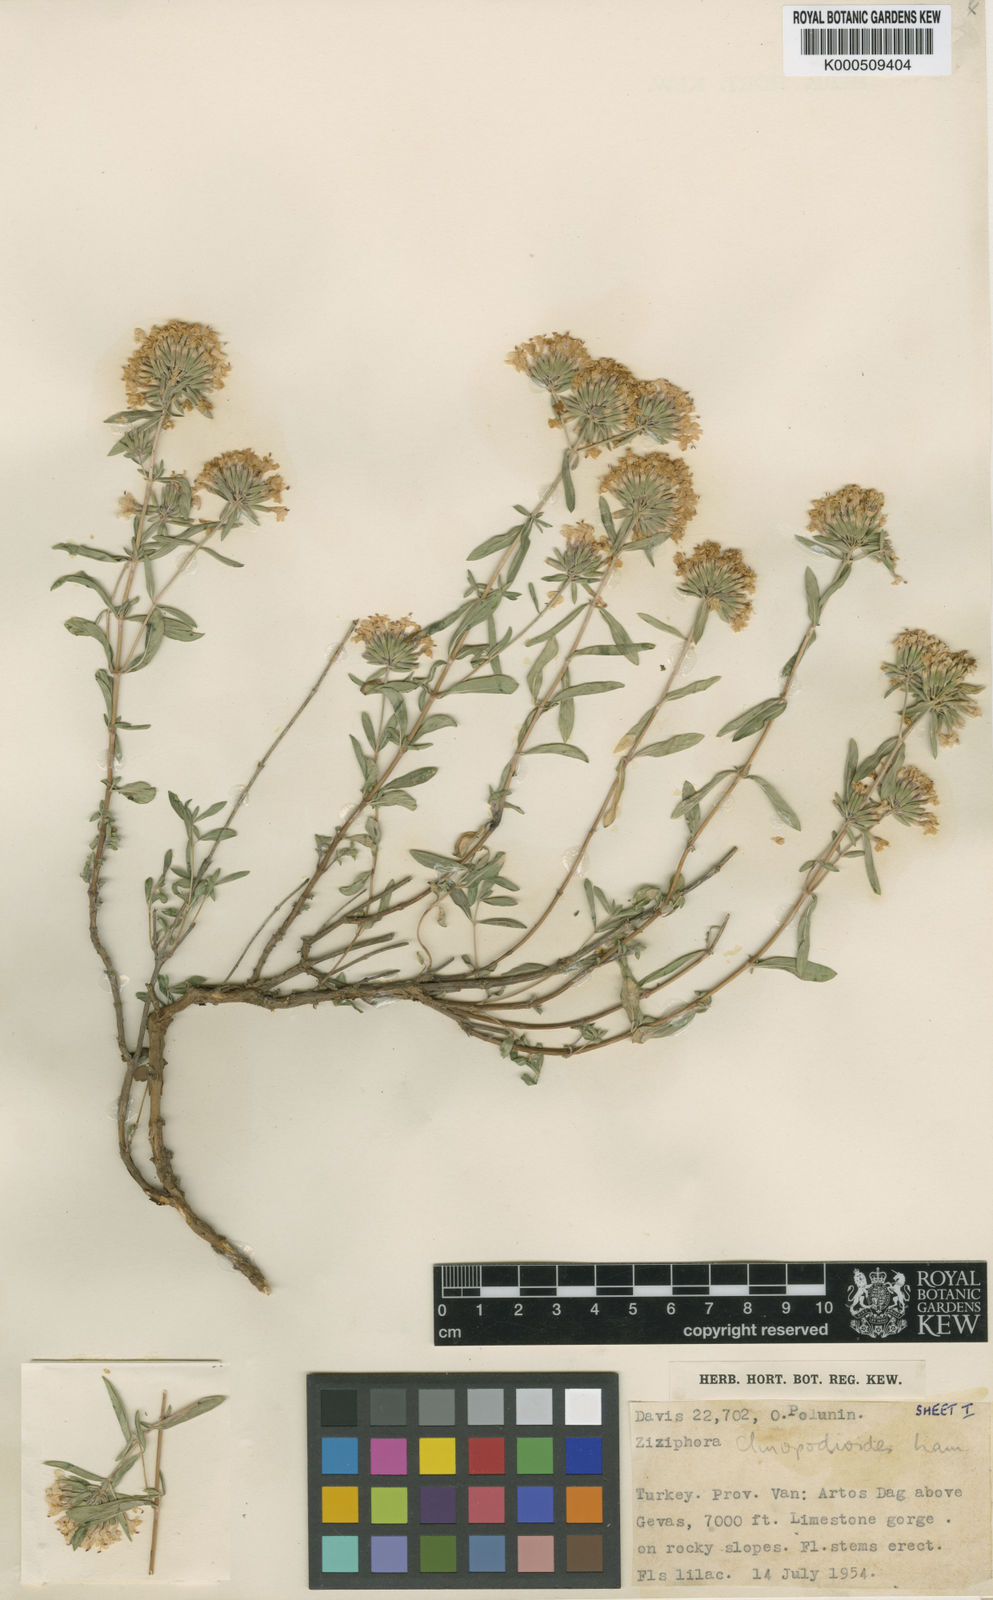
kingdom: Plantae
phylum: Tracheophyta
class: Magnoliopsida
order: Lamiales
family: Lamiaceae
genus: Ziziphora
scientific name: Ziziphora clinopodioides
